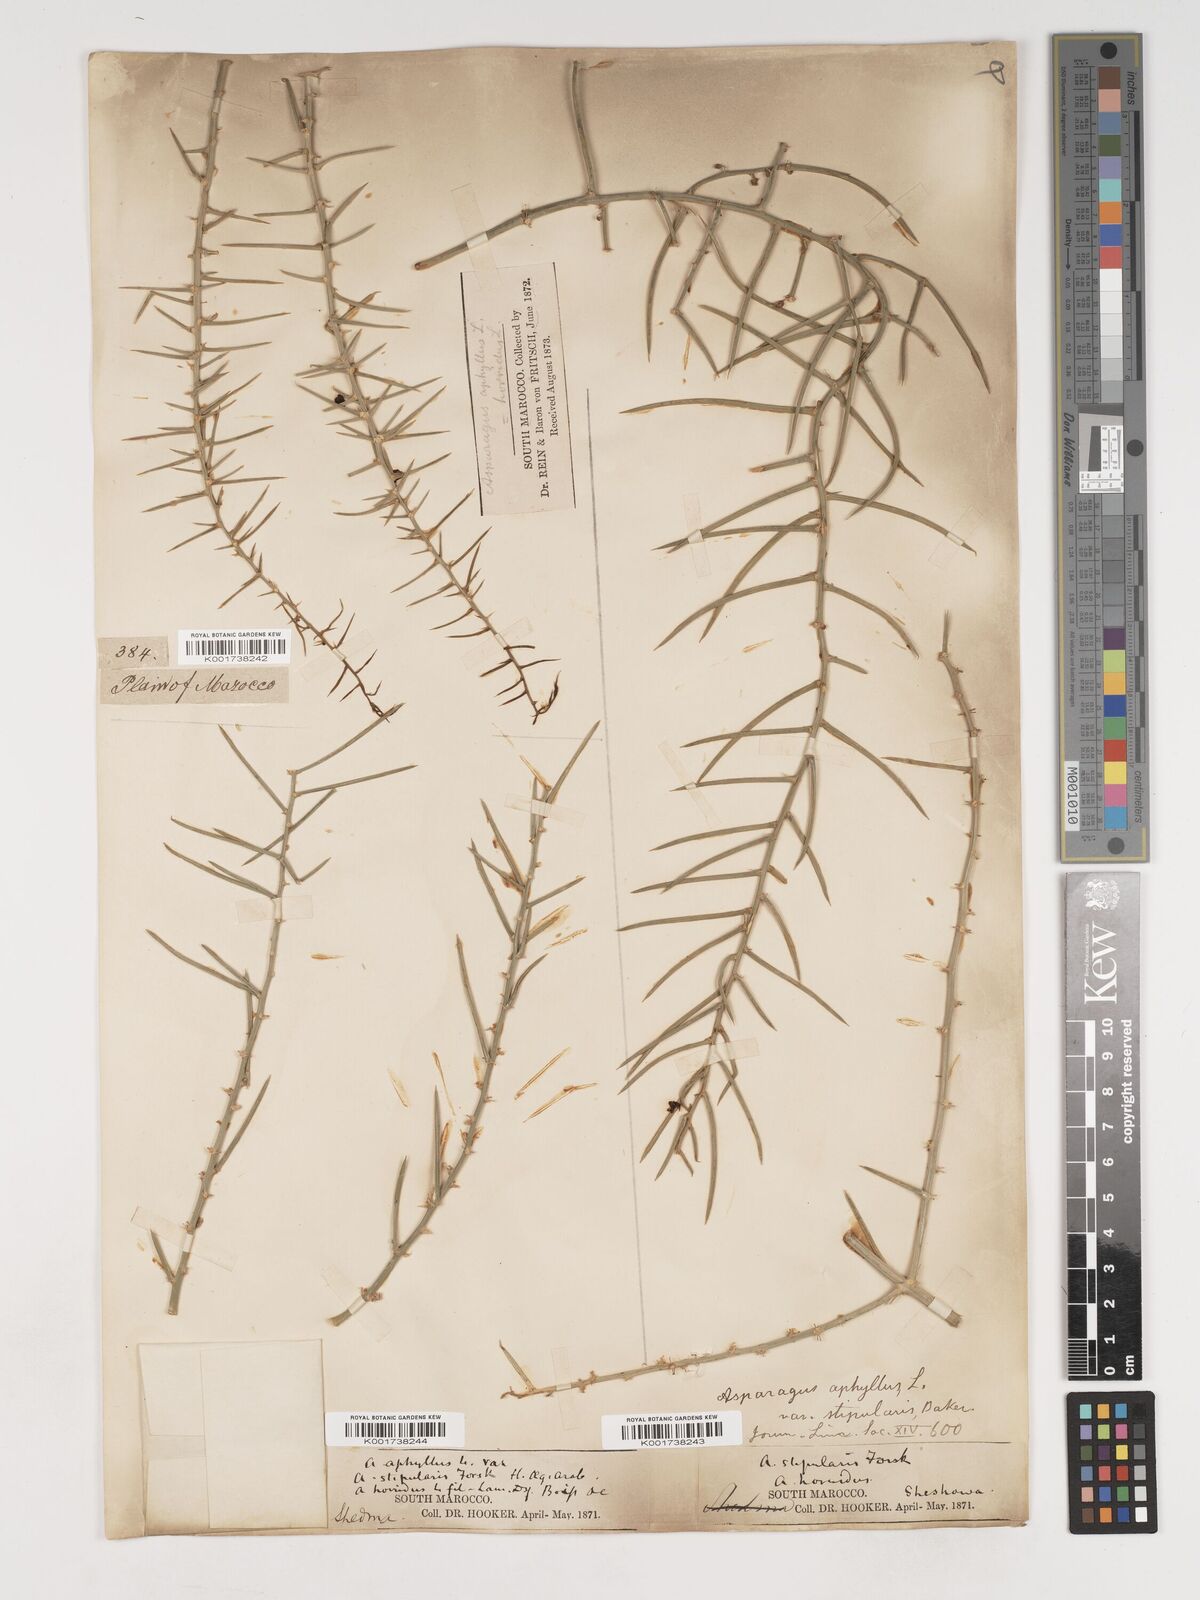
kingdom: Plantae
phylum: Tracheophyta
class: Liliopsida
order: Asparagales
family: Asparagaceae
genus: Asparagus
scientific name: Asparagus horridus
